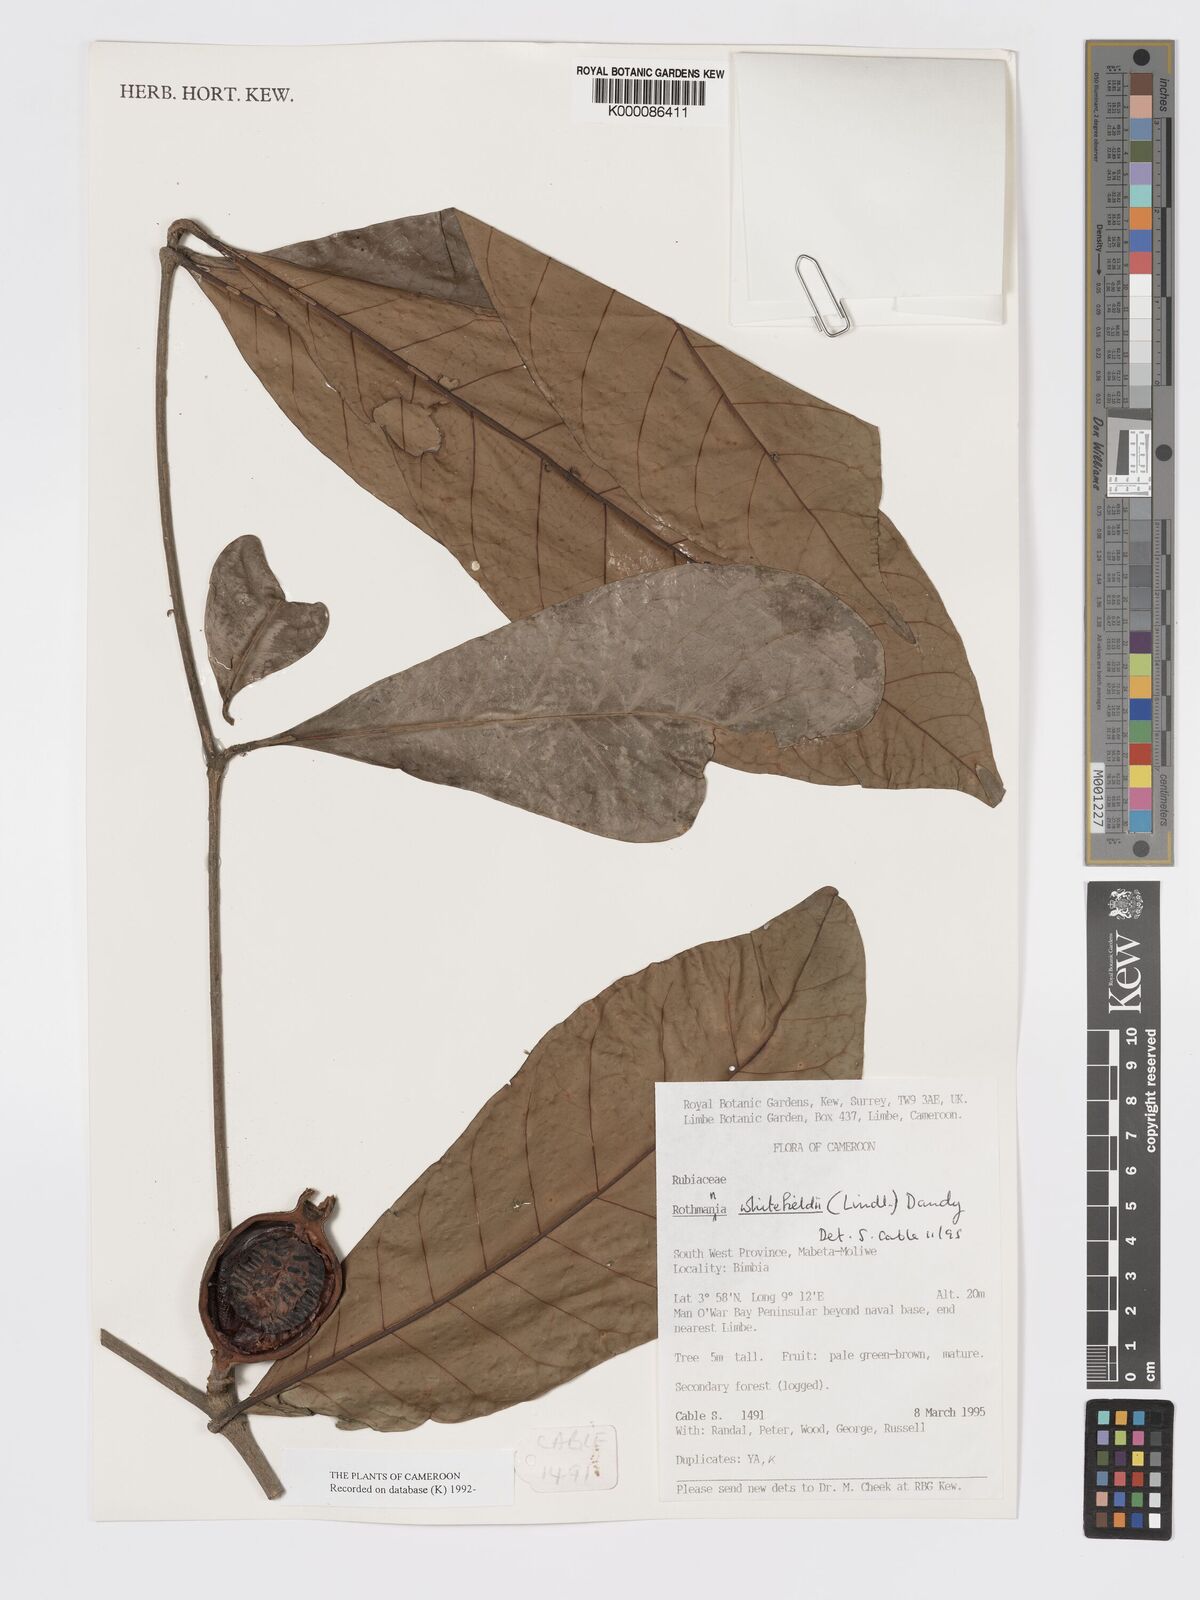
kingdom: Plantae
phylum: Tracheophyta
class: Magnoliopsida
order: Gentianales
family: Rubiaceae
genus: Rothmannia
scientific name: Rothmannia whitfieldii
